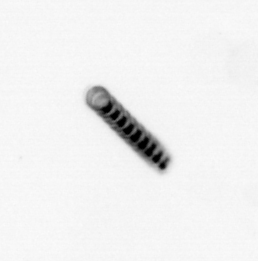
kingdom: Chromista
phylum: Ochrophyta
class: Bacillariophyceae
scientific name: Bacillariophyceae
